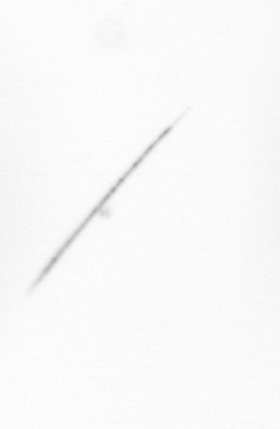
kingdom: Chromista
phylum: Ochrophyta
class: Bacillariophyceae
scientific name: Bacillariophyceae
